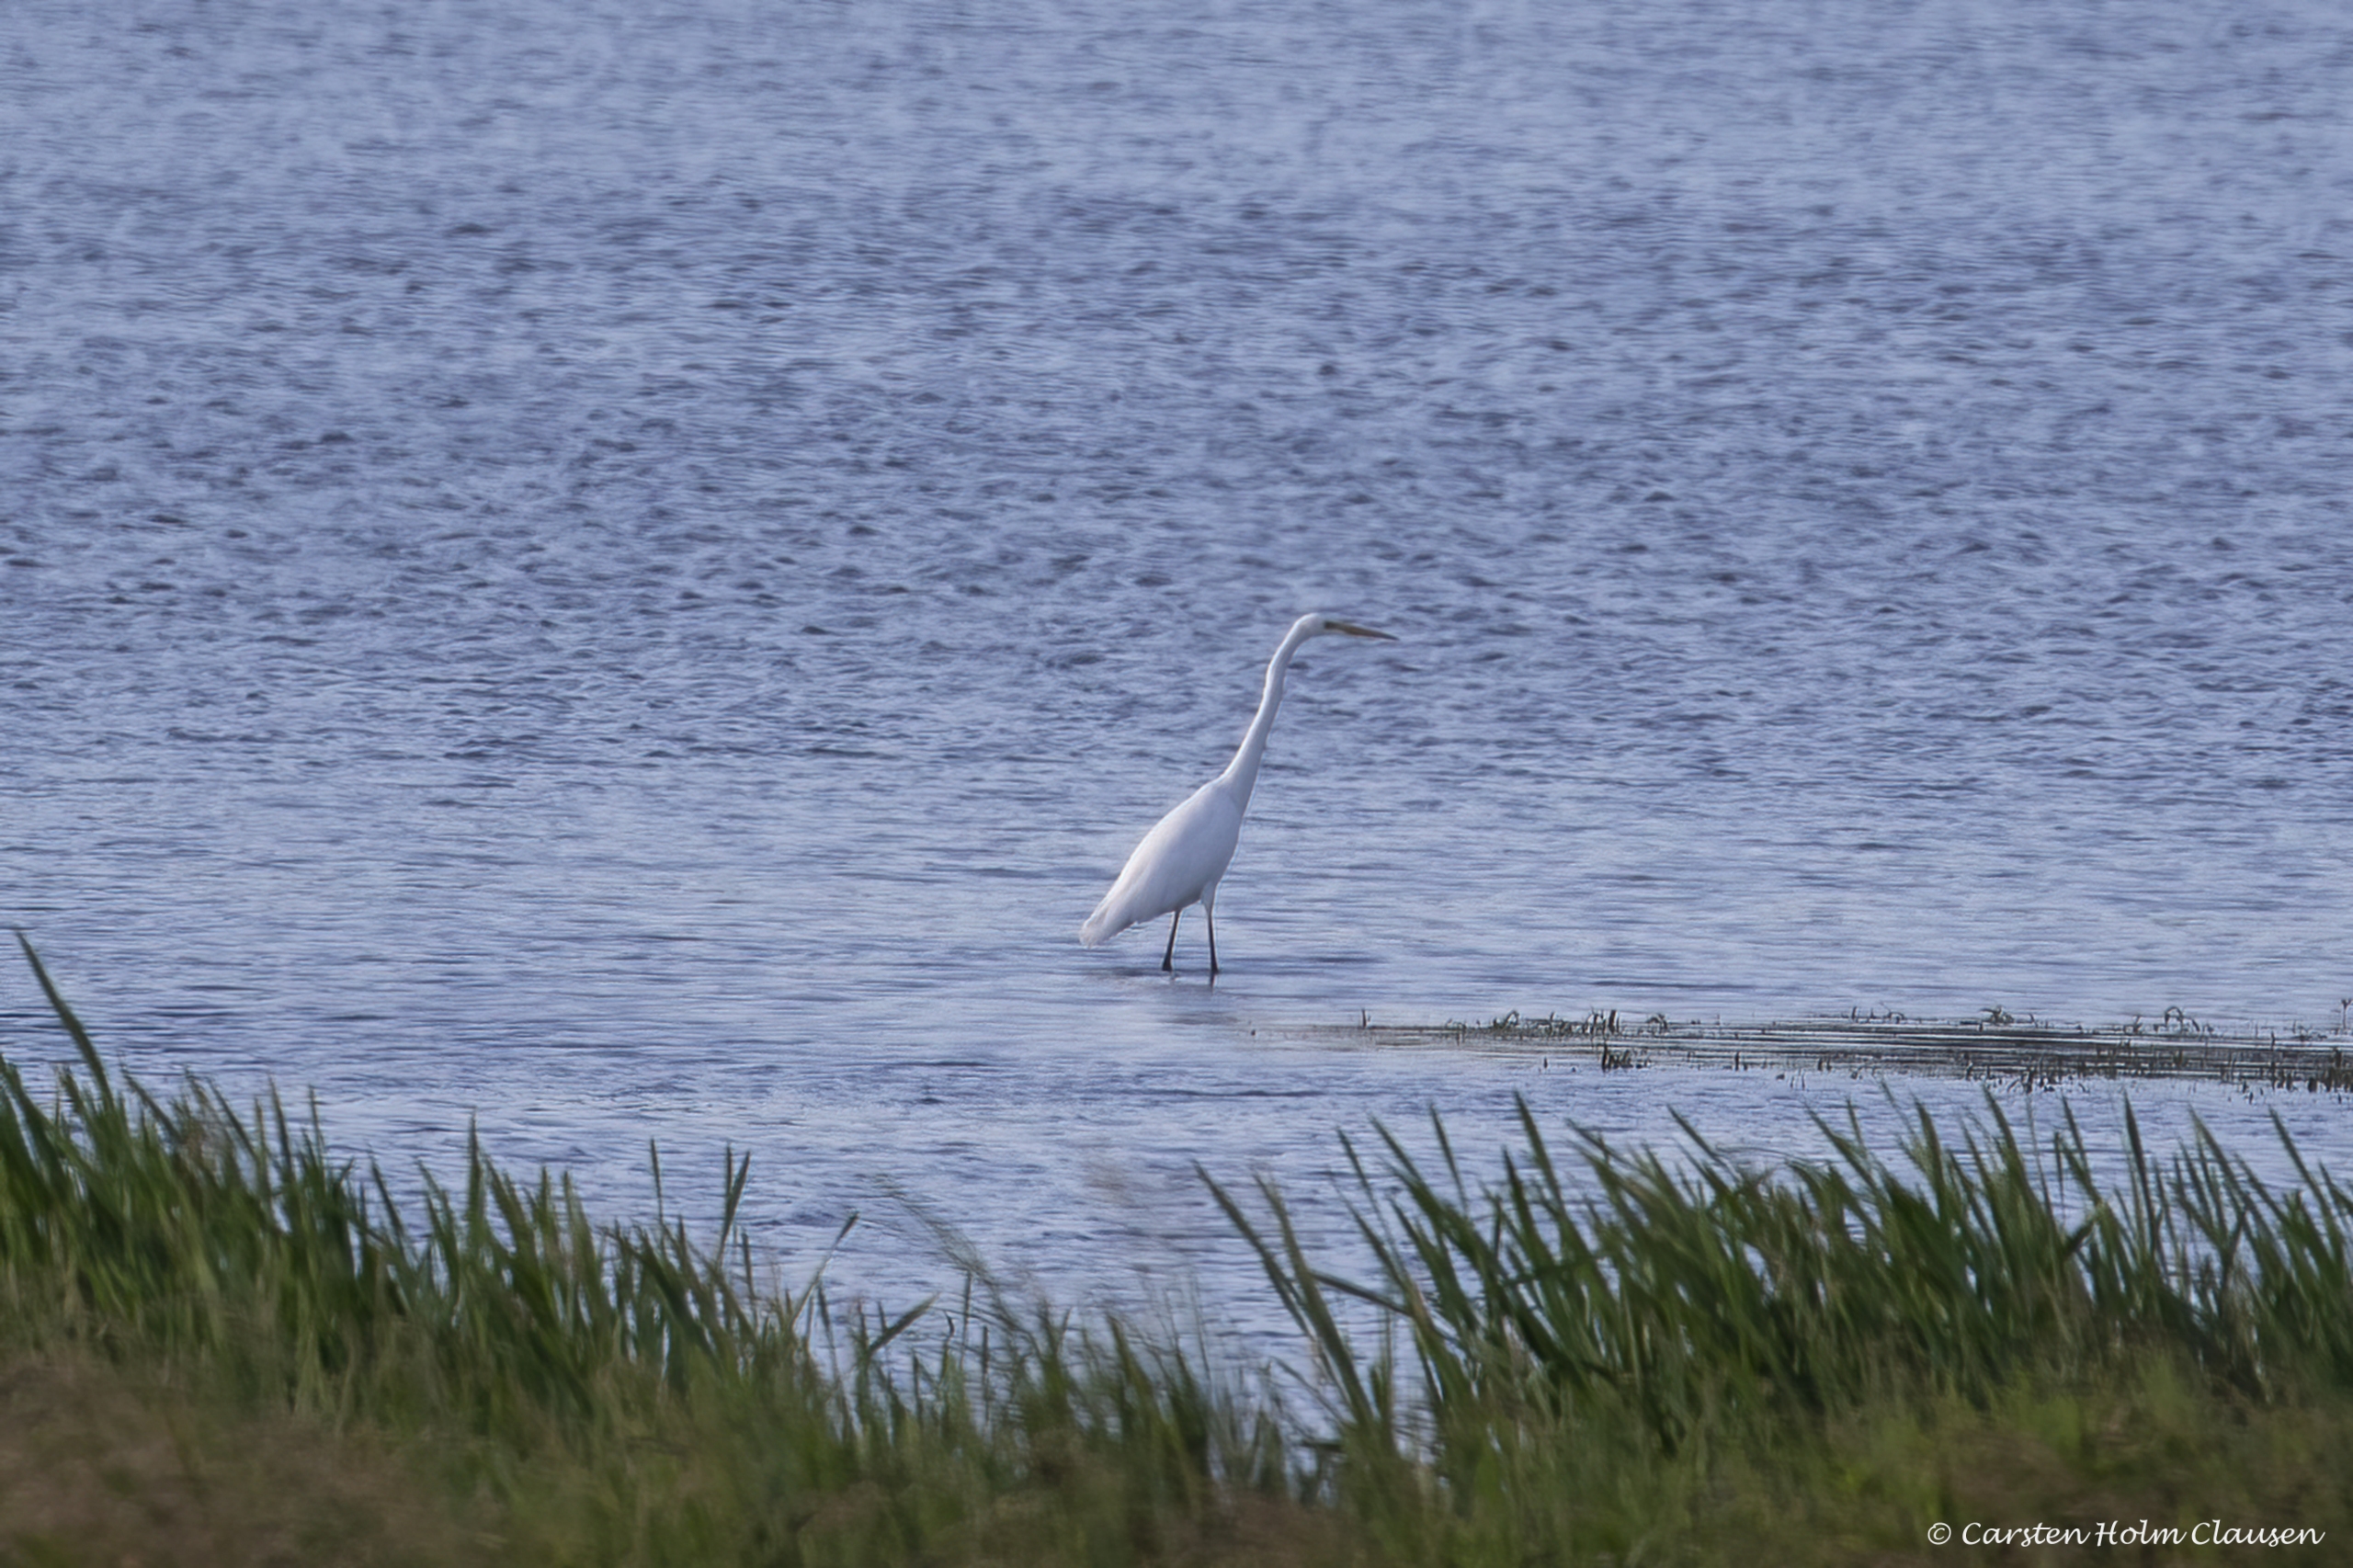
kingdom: Animalia
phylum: Chordata
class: Aves
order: Pelecaniformes
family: Ardeidae
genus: Ardea
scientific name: Ardea alba
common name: Sølvhejre
